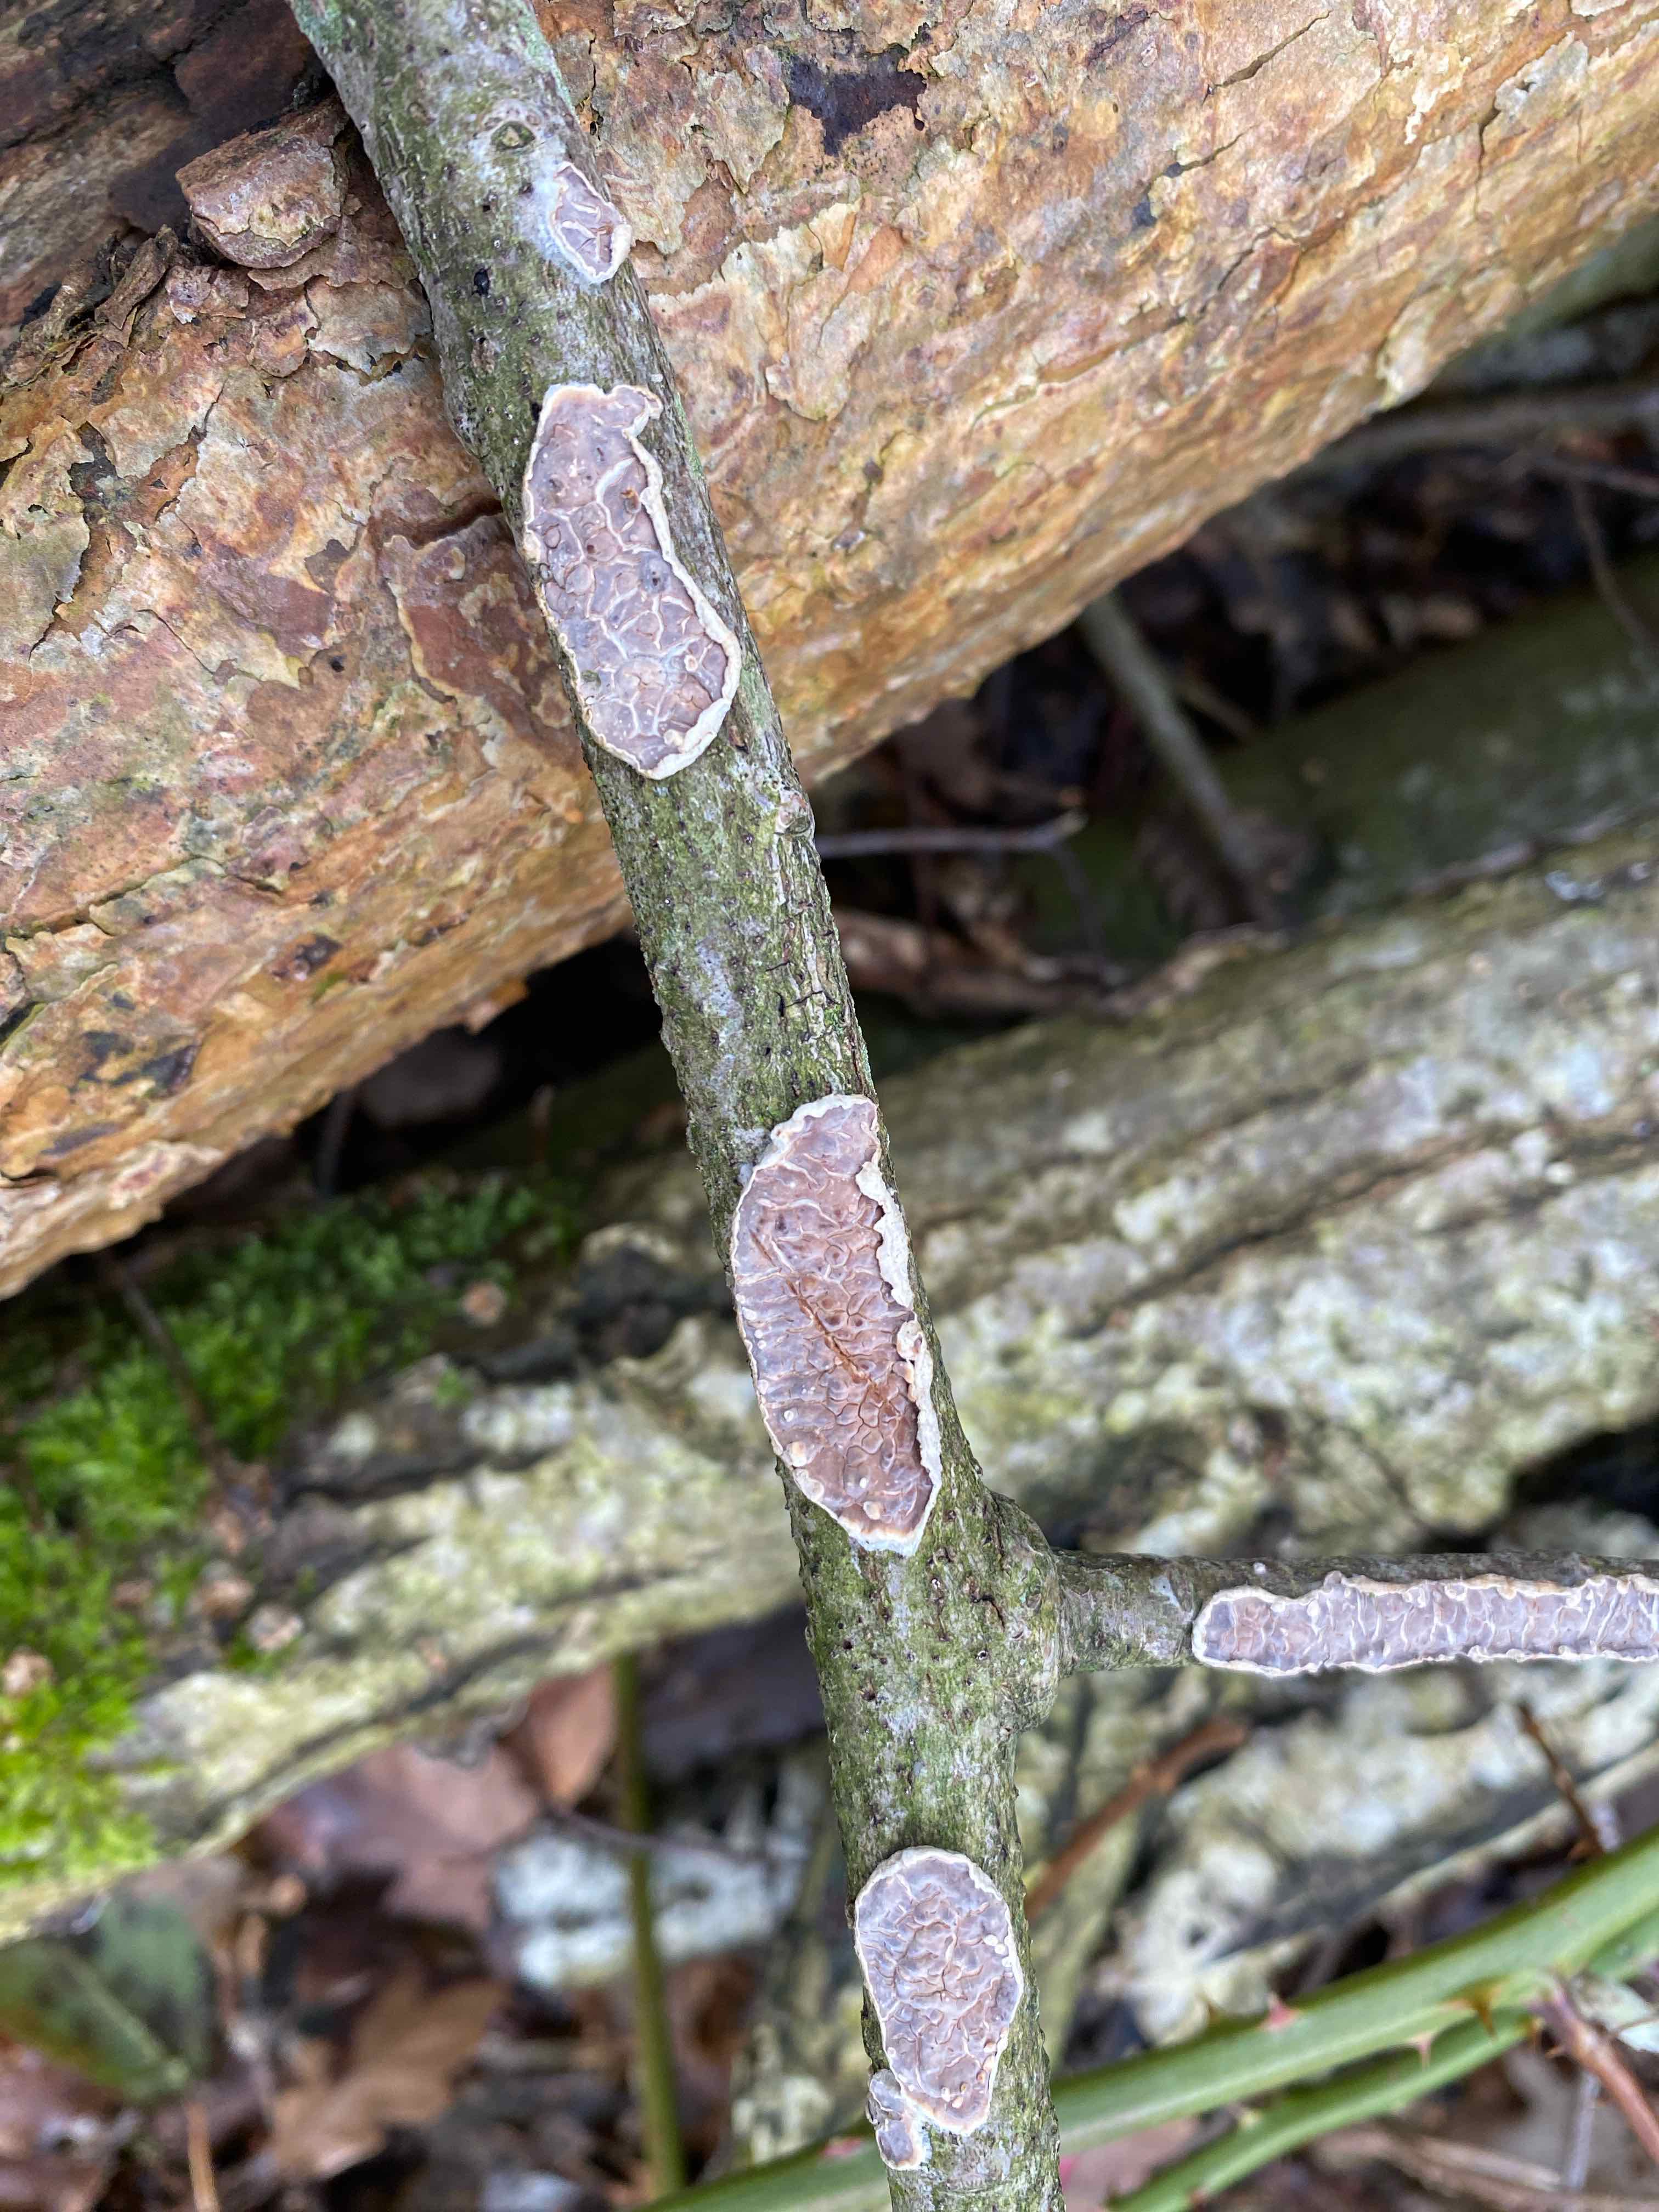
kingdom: Fungi
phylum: Basidiomycota
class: Agaricomycetes
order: Agaricales
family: Cyphellaceae
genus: Chondrostereum
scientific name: Chondrostereum purpureum
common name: purpurlædersvamp
